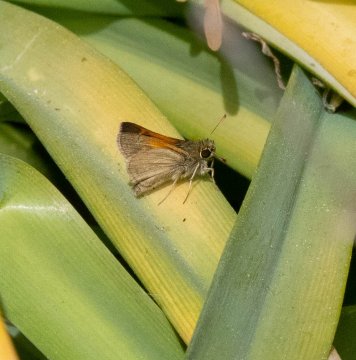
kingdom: Animalia
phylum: Arthropoda
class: Insecta
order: Lepidoptera
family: Hesperiidae
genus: Polites
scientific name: Polites themistocles
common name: Tawny-edged Skipper
